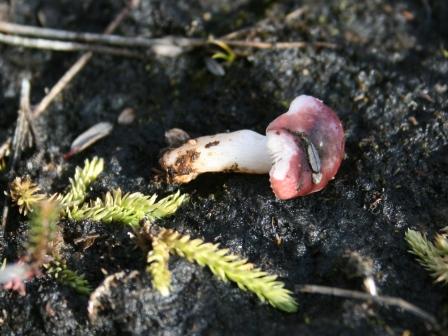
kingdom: Fungi
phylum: Basidiomycota
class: Agaricomycetes
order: Russulales
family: Russulaceae
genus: Russula
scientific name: Russula laccata
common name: klit-skørhat
